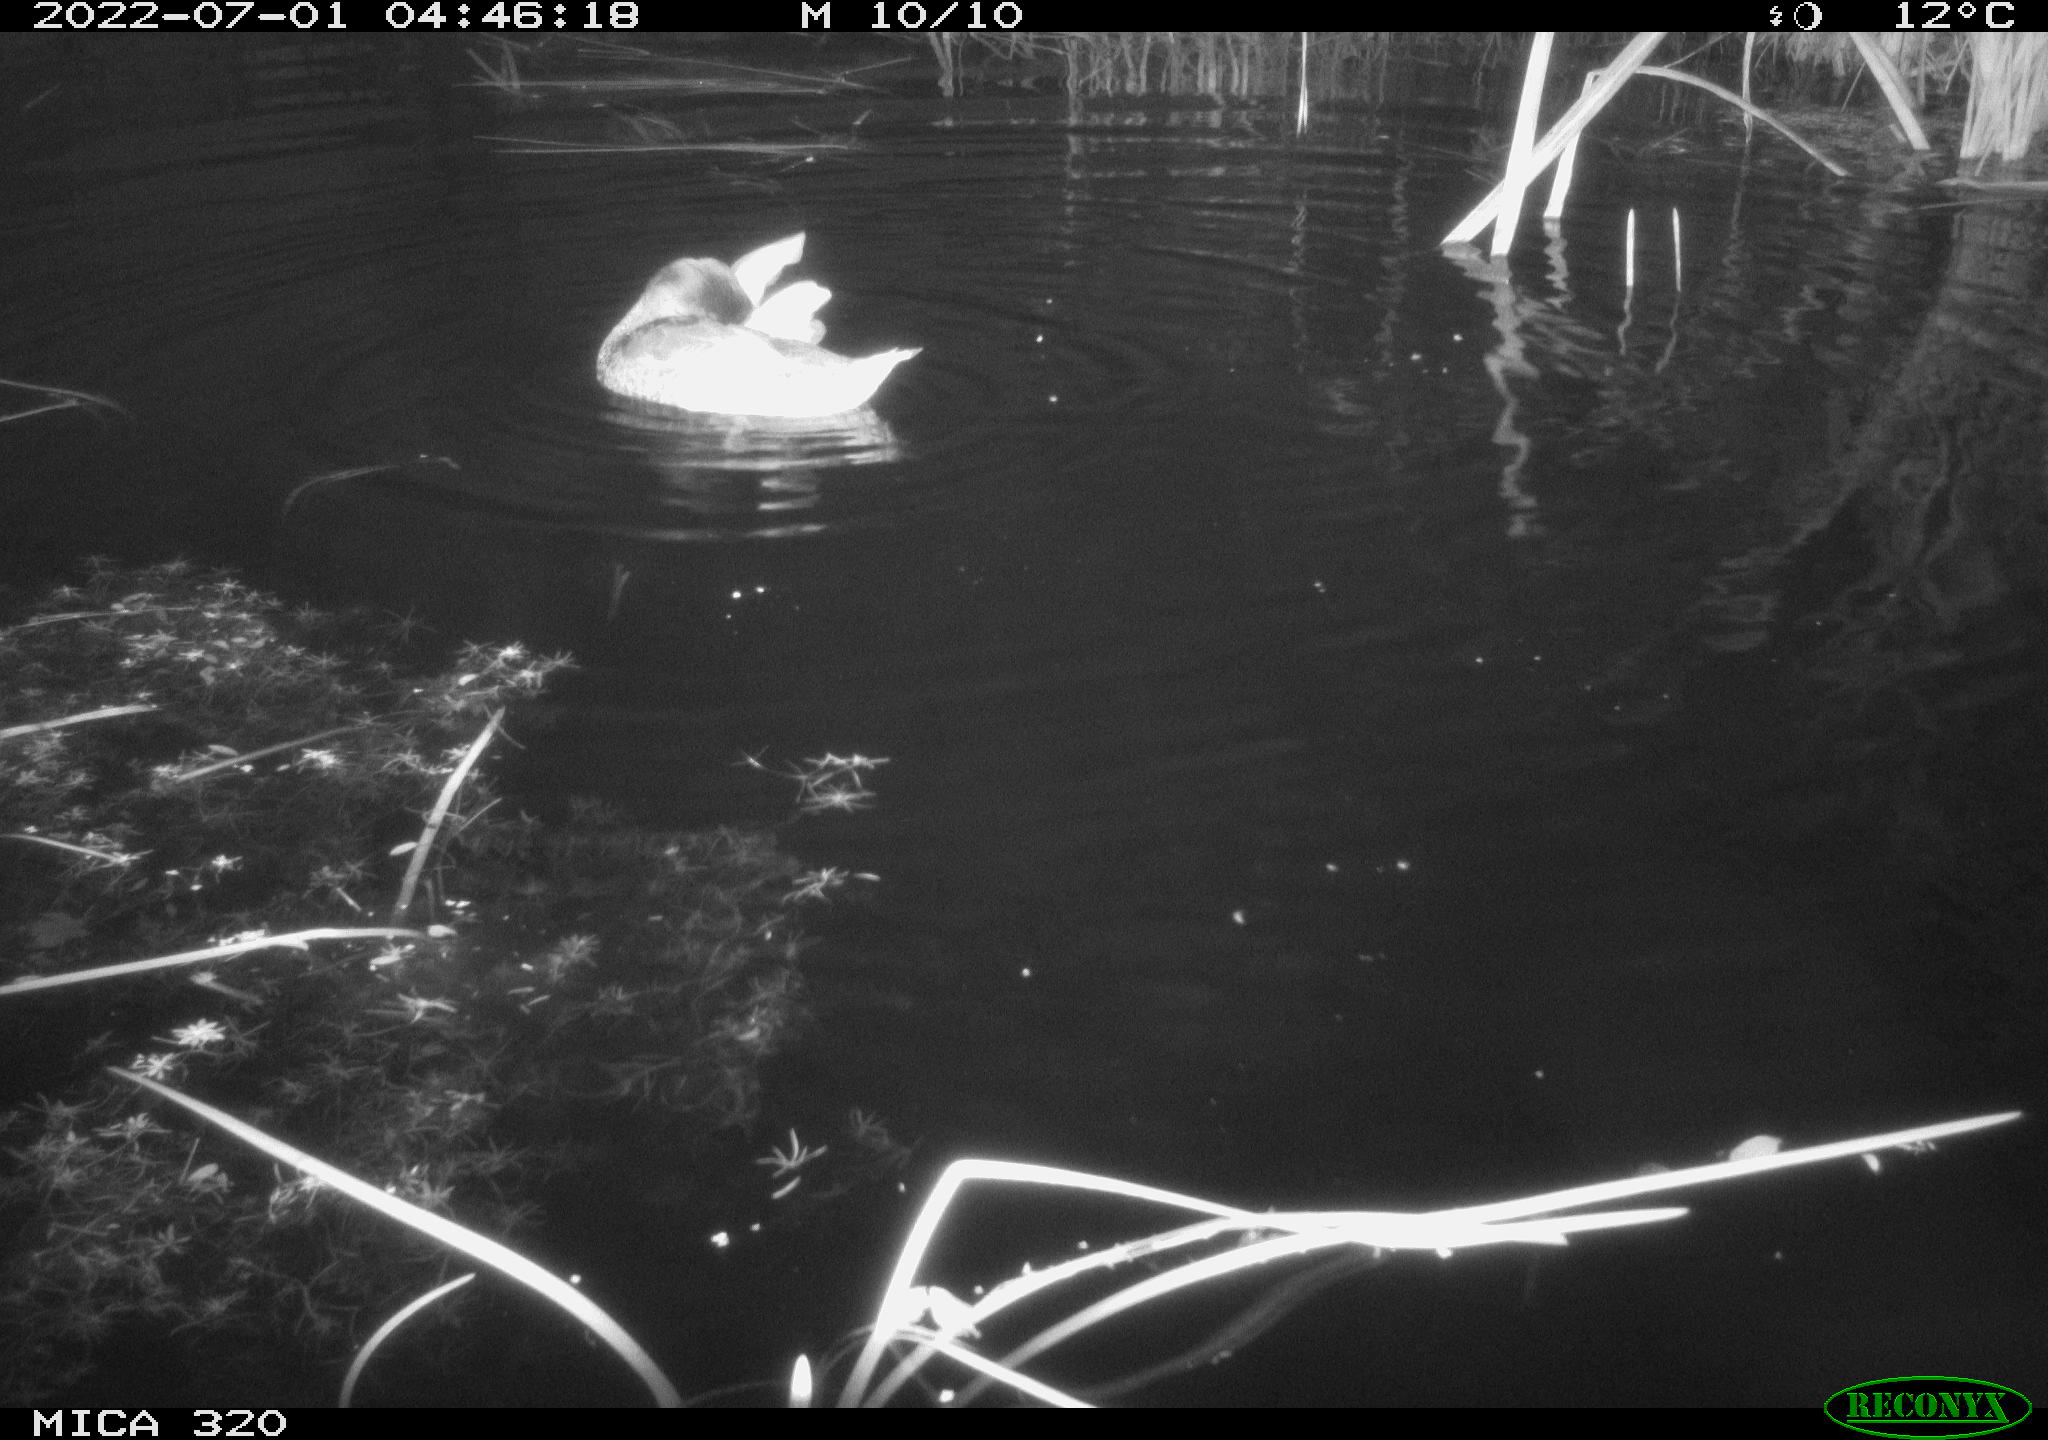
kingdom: Animalia
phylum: Chordata
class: Aves
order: Anseriformes
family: Anatidae
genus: Anas
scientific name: Anas platyrhynchos
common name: Mallard
